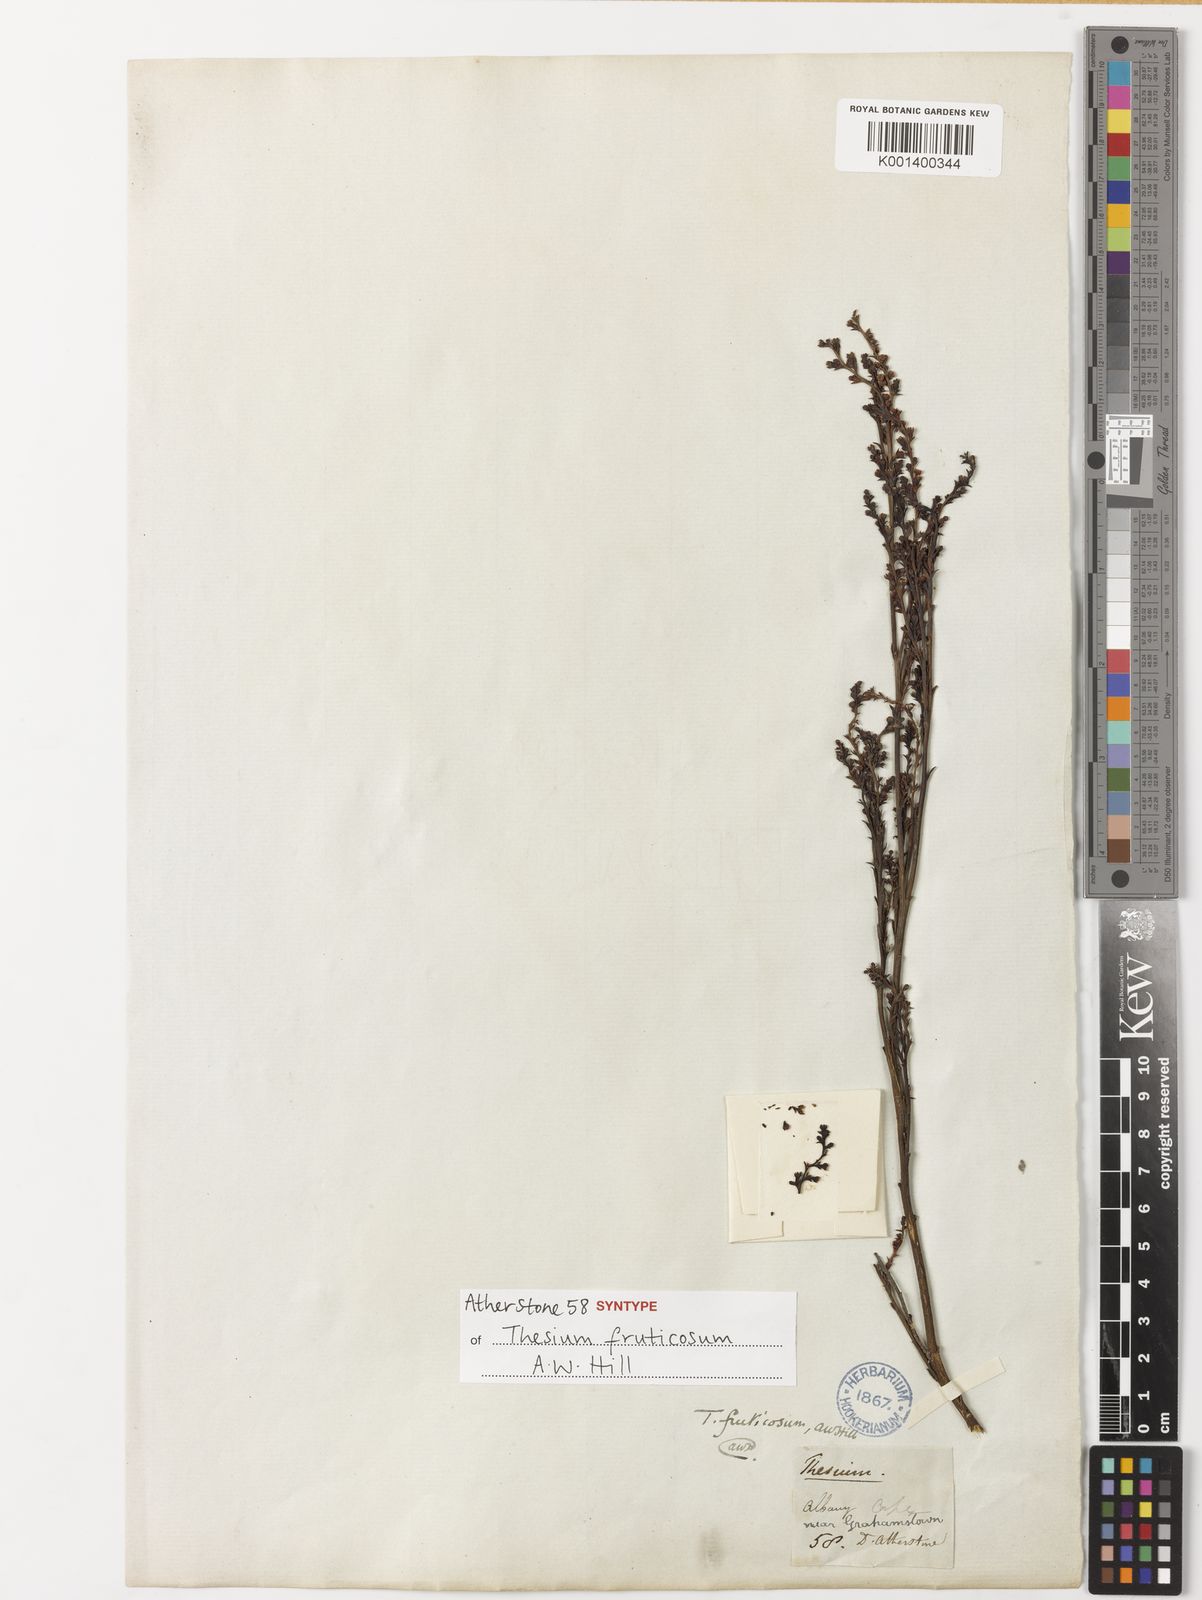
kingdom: Plantae
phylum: Tracheophyta
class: Magnoliopsida
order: Santalales
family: Thesiaceae
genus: Thesium
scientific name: Thesium fruticosum
